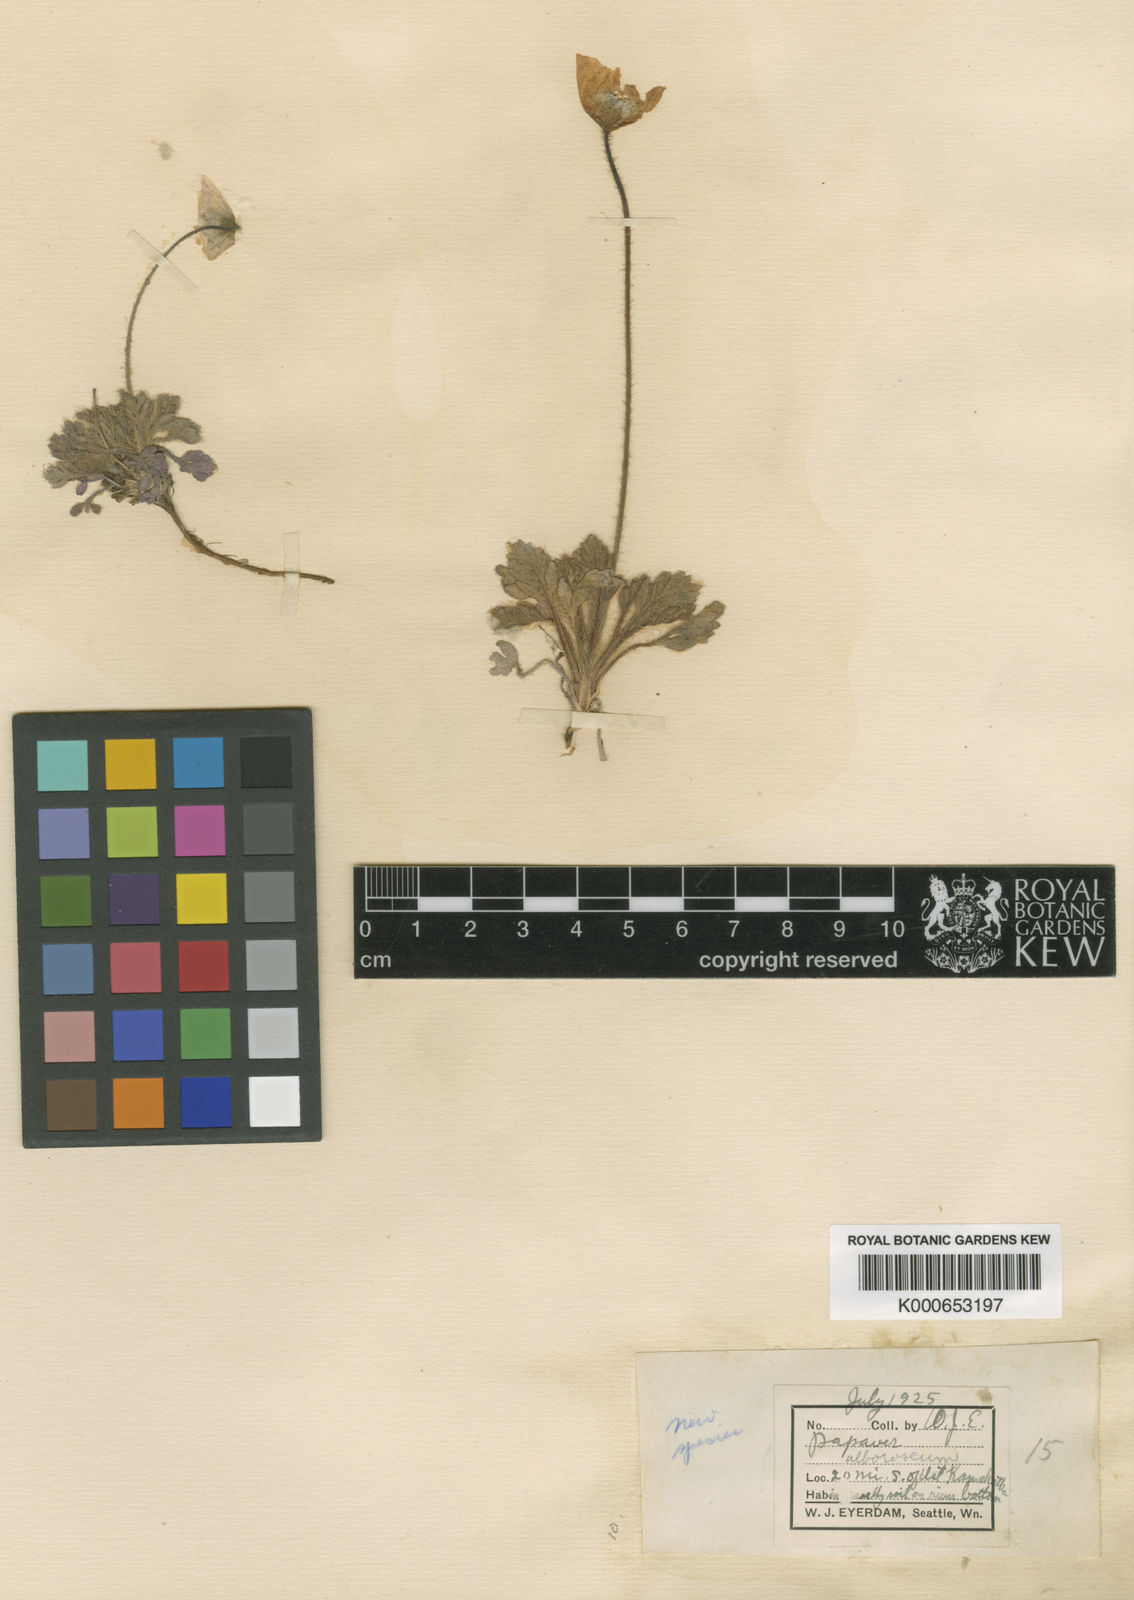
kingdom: Plantae
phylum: Tracheophyta
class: Magnoliopsida
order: Ranunculales
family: Papaveraceae
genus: Papaver
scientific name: Papaver
